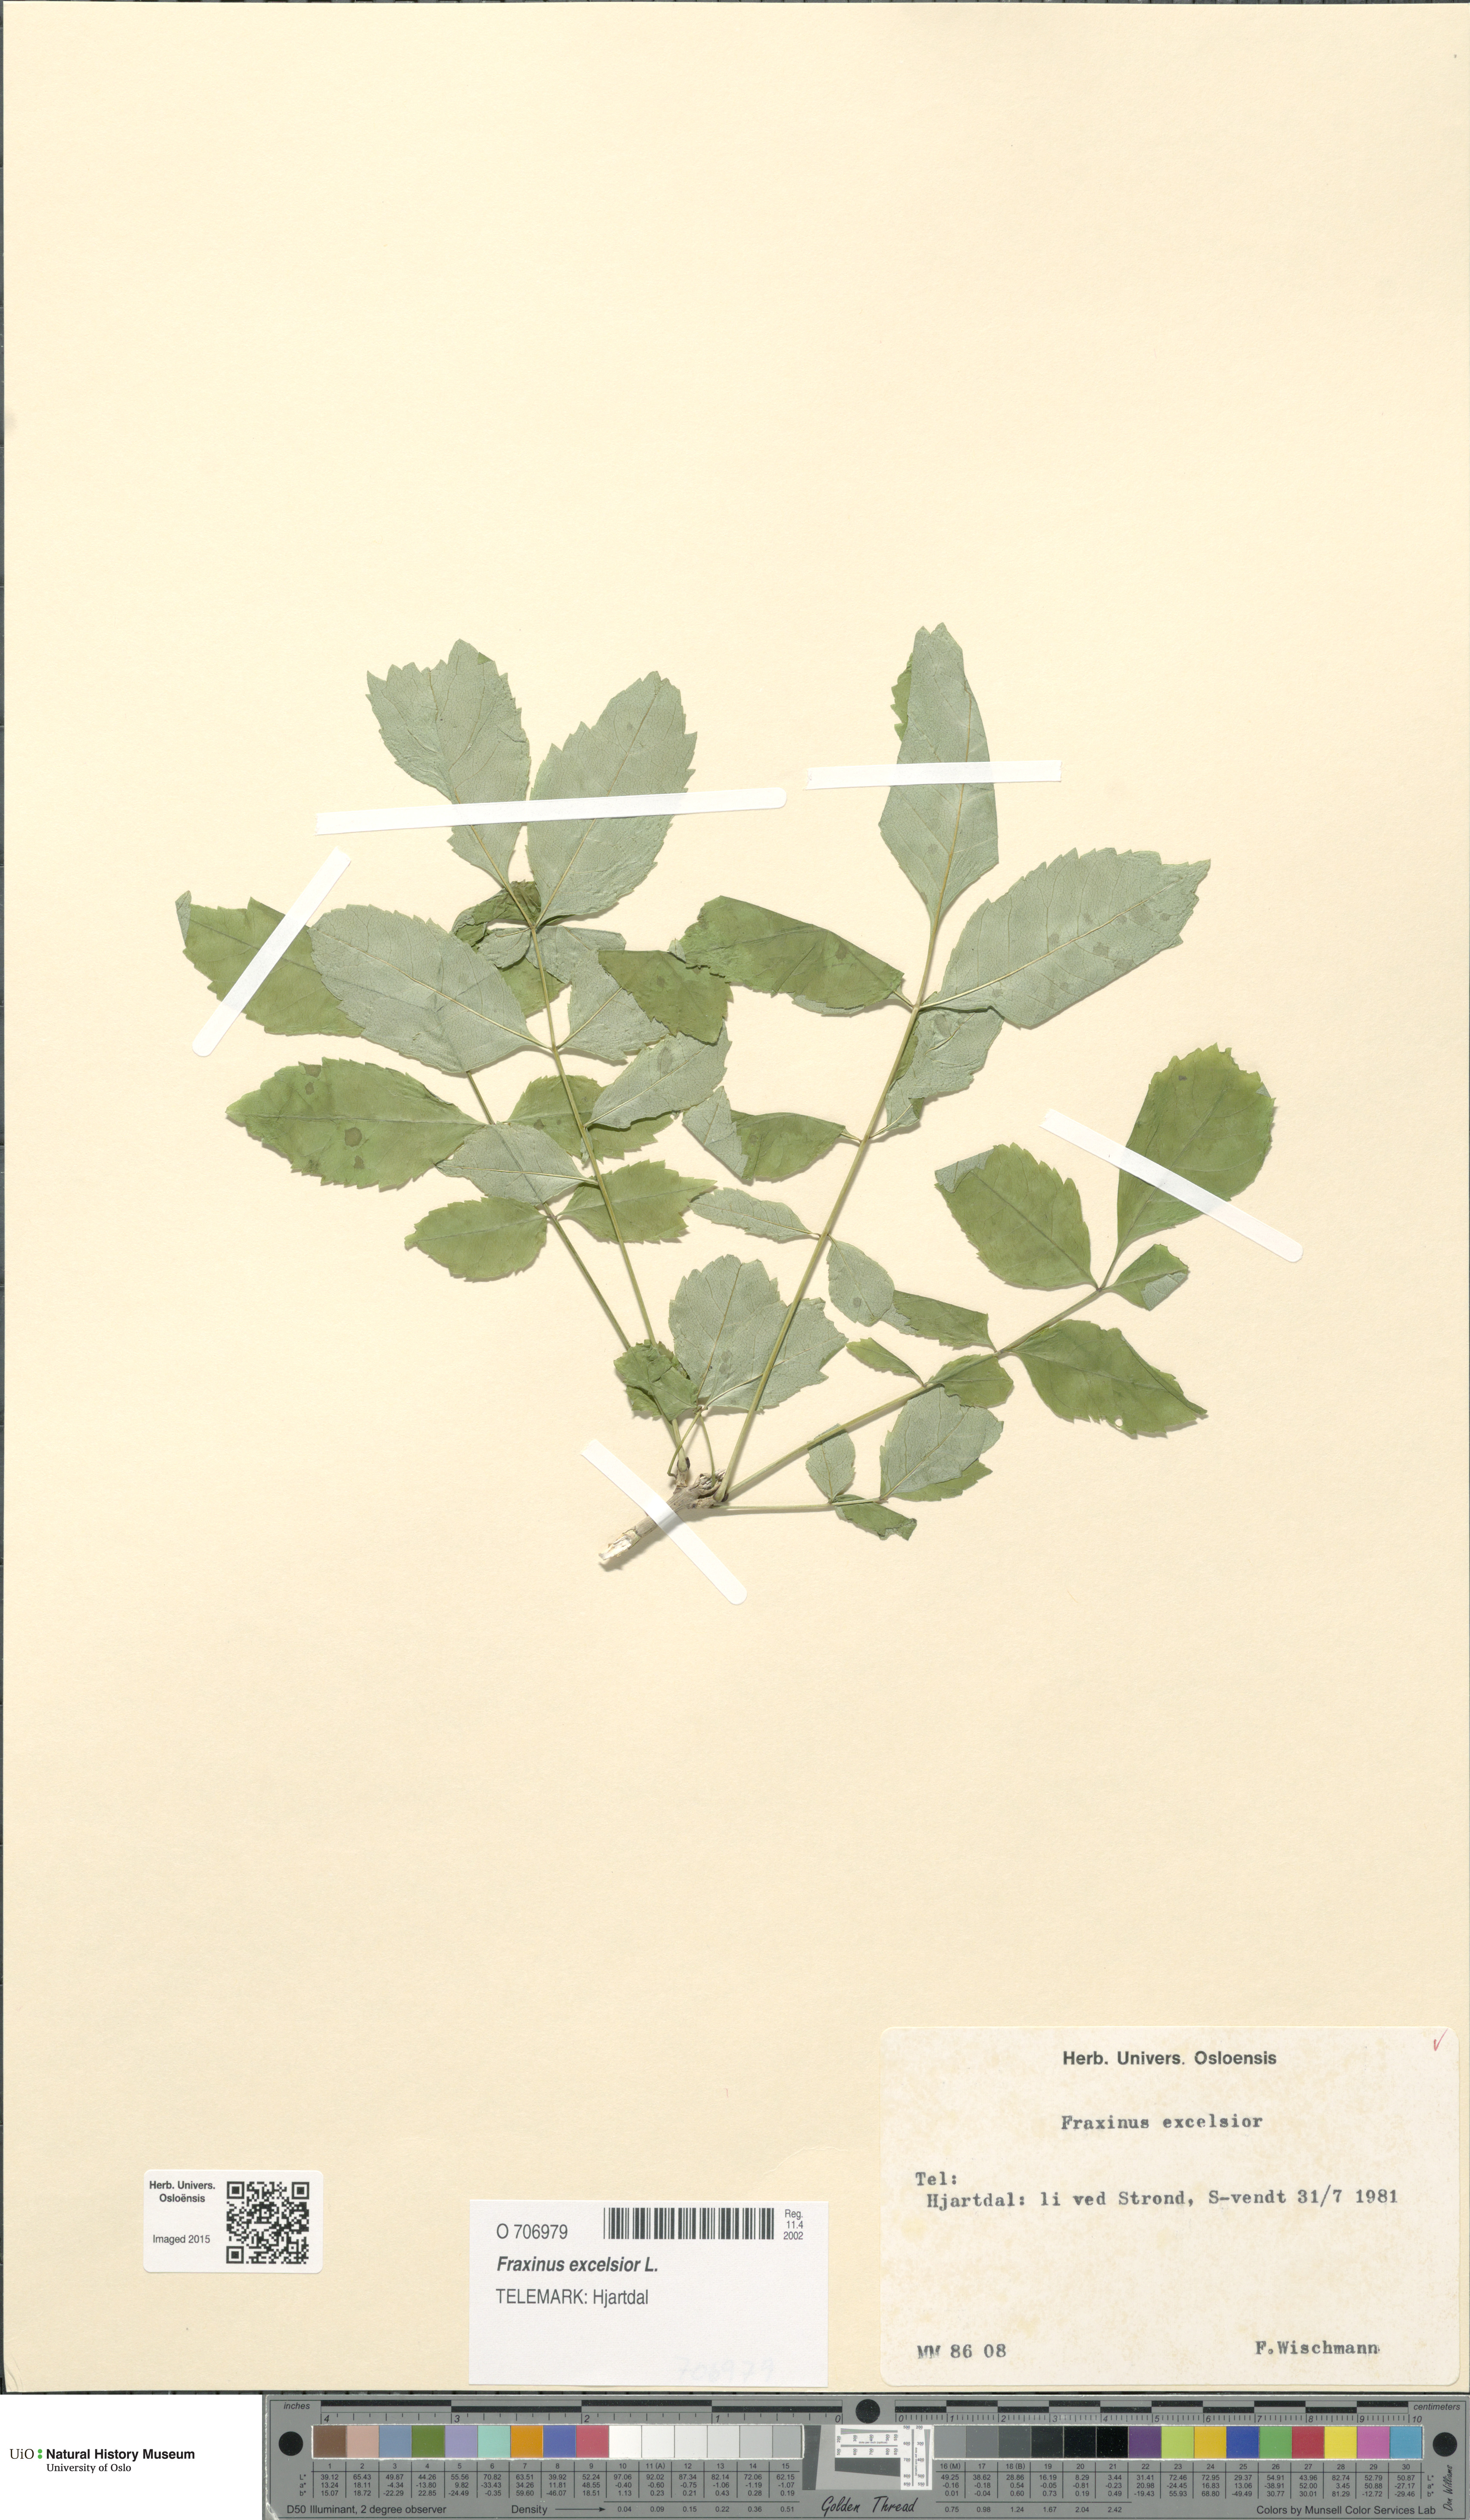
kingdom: Plantae
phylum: Tracheophyta
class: Magnoliopsida
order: Lamiales
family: Oleaceae
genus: Fraxinus
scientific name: Fraxinus excelsior
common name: European ash
